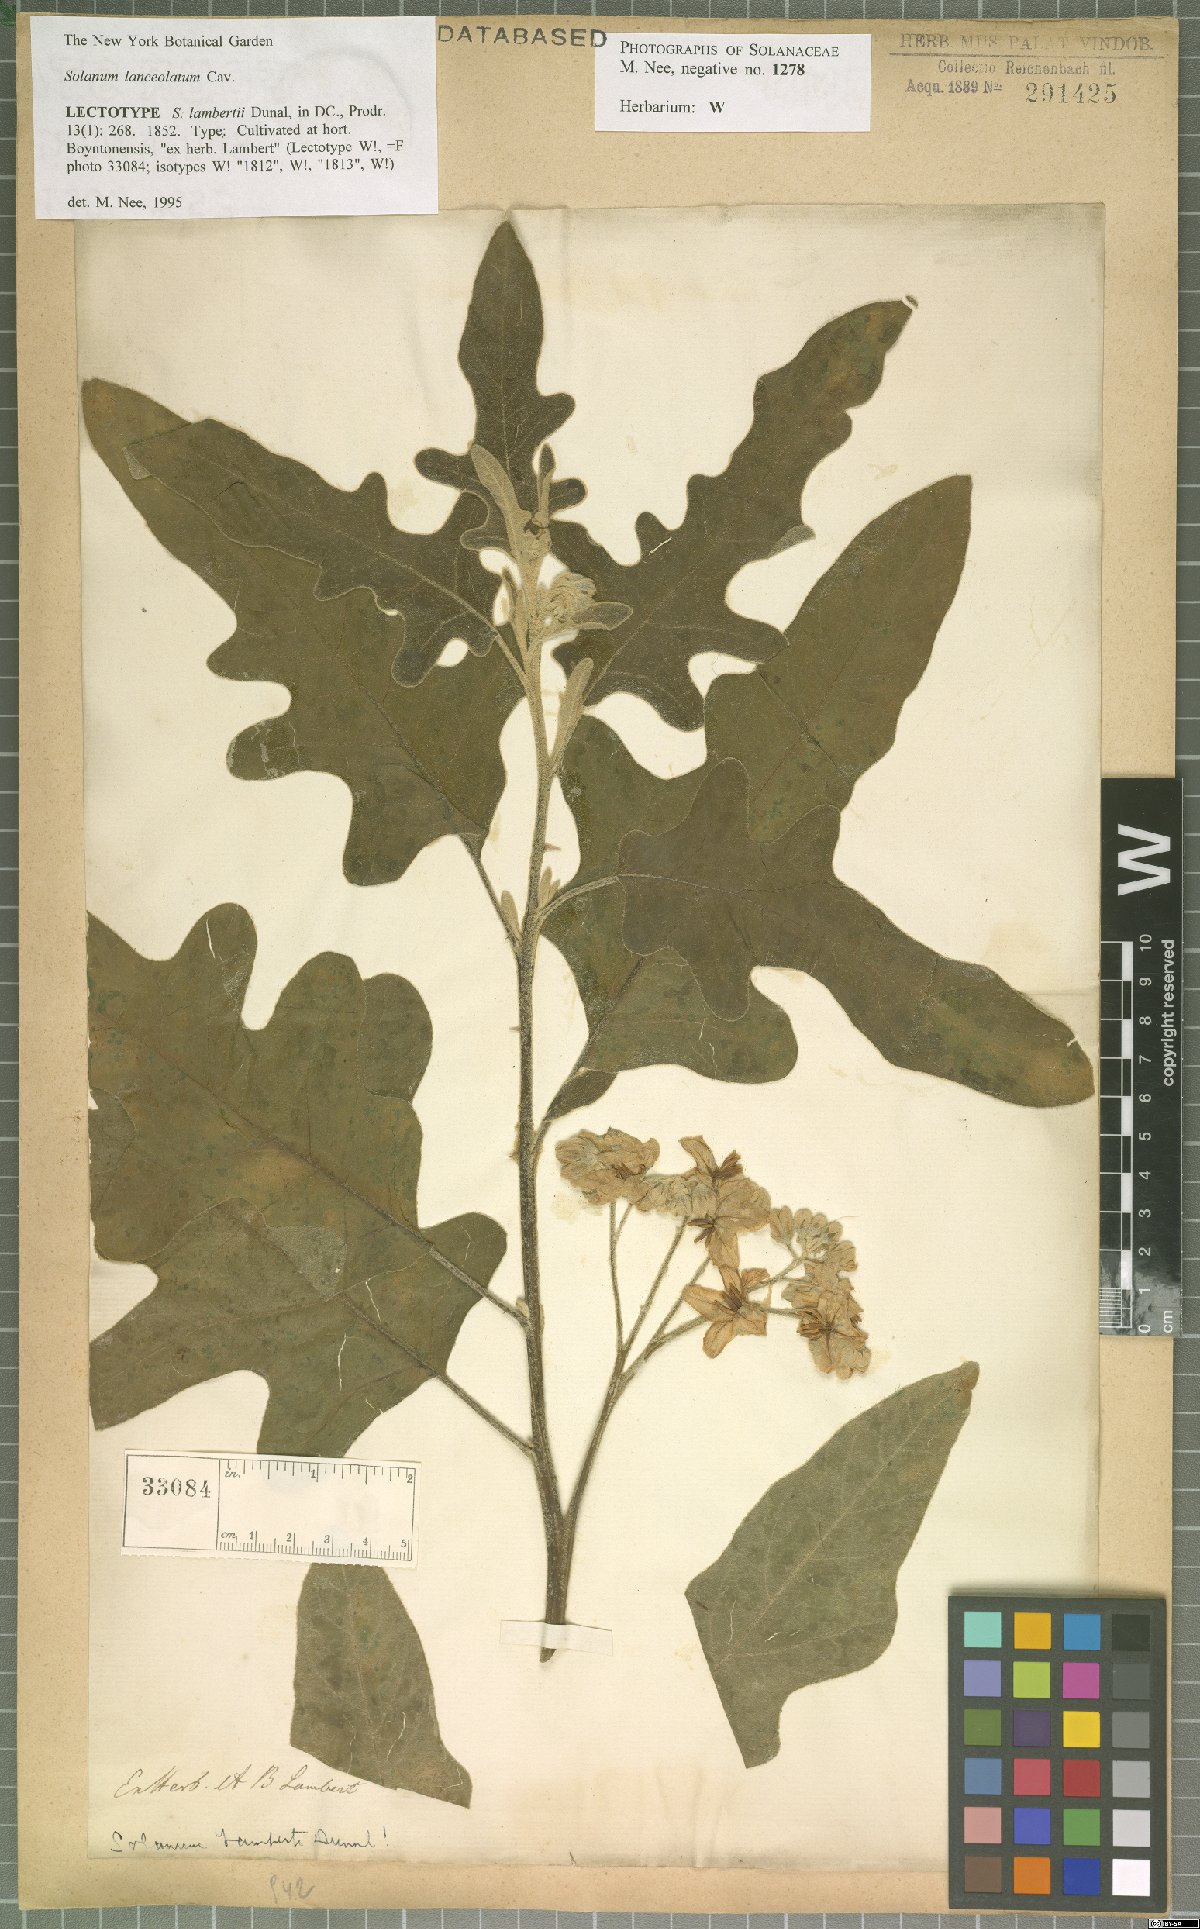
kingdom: Plantae
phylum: Tracheophyta
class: Magnoliopsida
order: Solanales
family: Solanaceae
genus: Solanum
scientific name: Solanum lanceolatum
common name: Orangeberry nightshade
